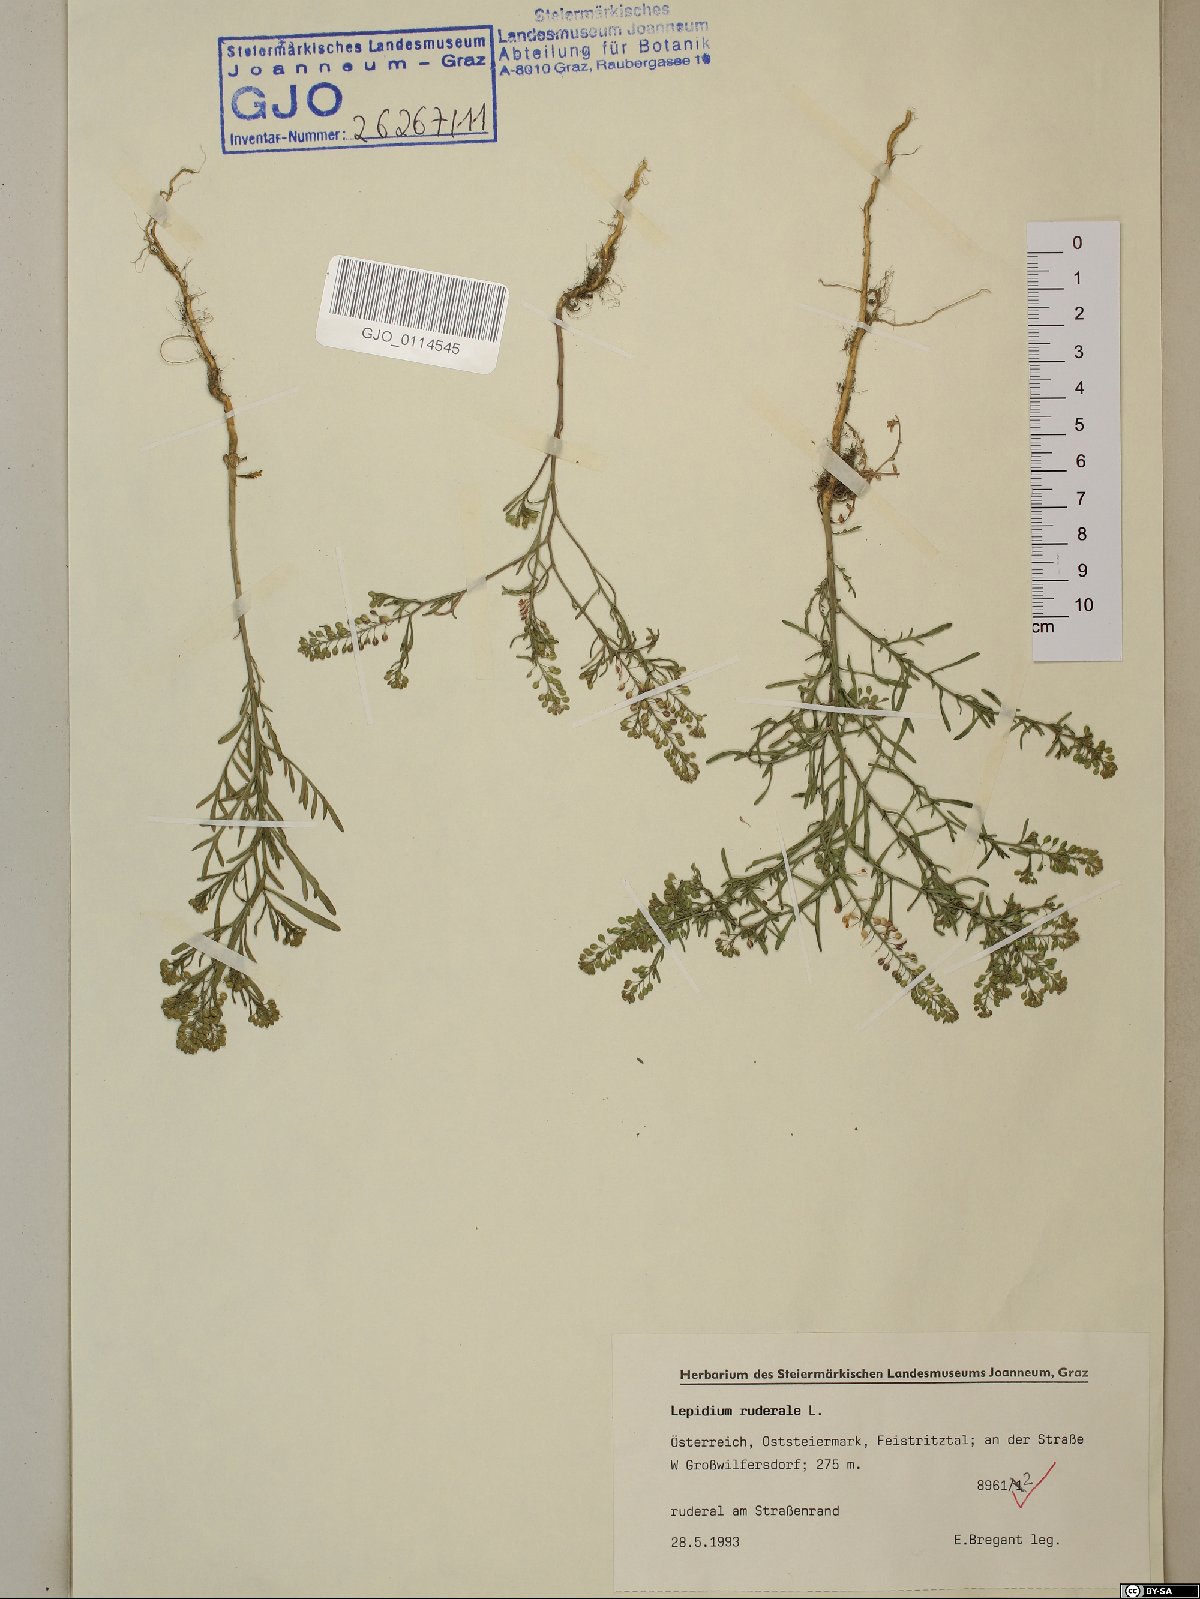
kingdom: Plantae
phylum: Tracheophyta
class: Magnoliopsida
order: Brassicales
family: Brassicaceae
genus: Lepidium
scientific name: Lepidium ruderale
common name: Narrow-leaved pepperwort
